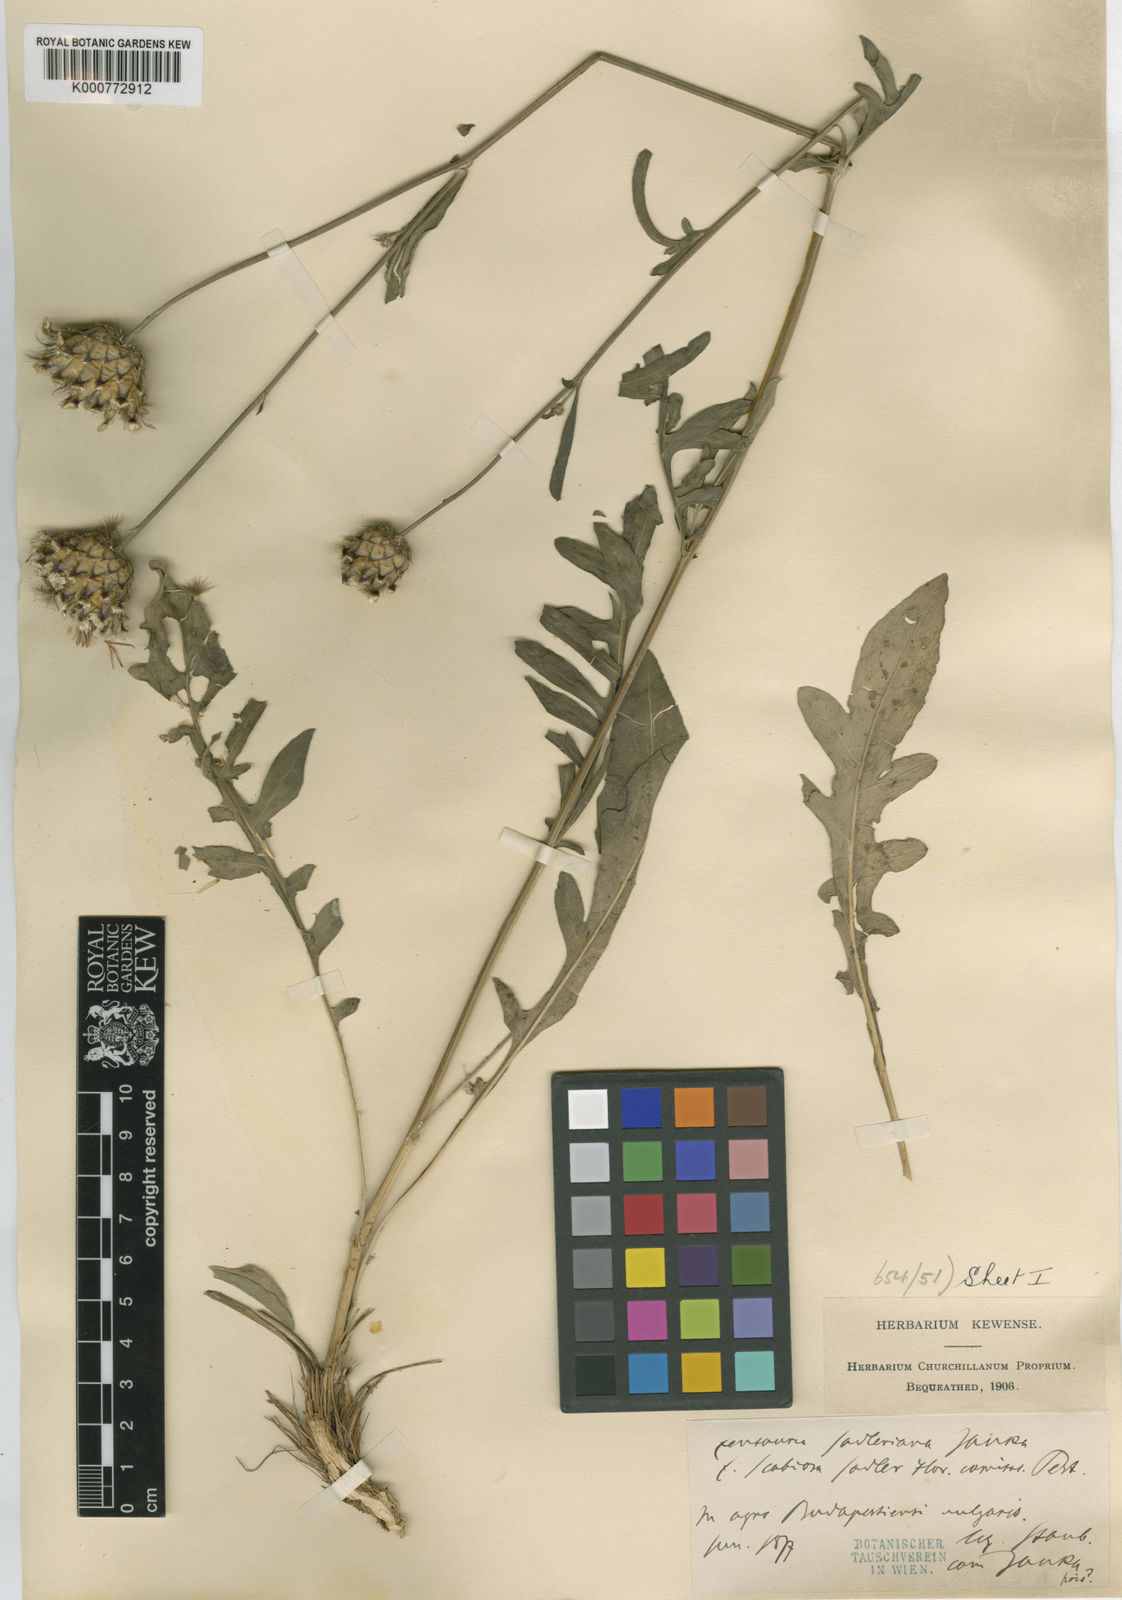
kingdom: Plantae
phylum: Tracheophyta
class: Magnoliopsida
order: Asterales
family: Asteraceae
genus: Centaurea
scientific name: Centaurea sadleriana
